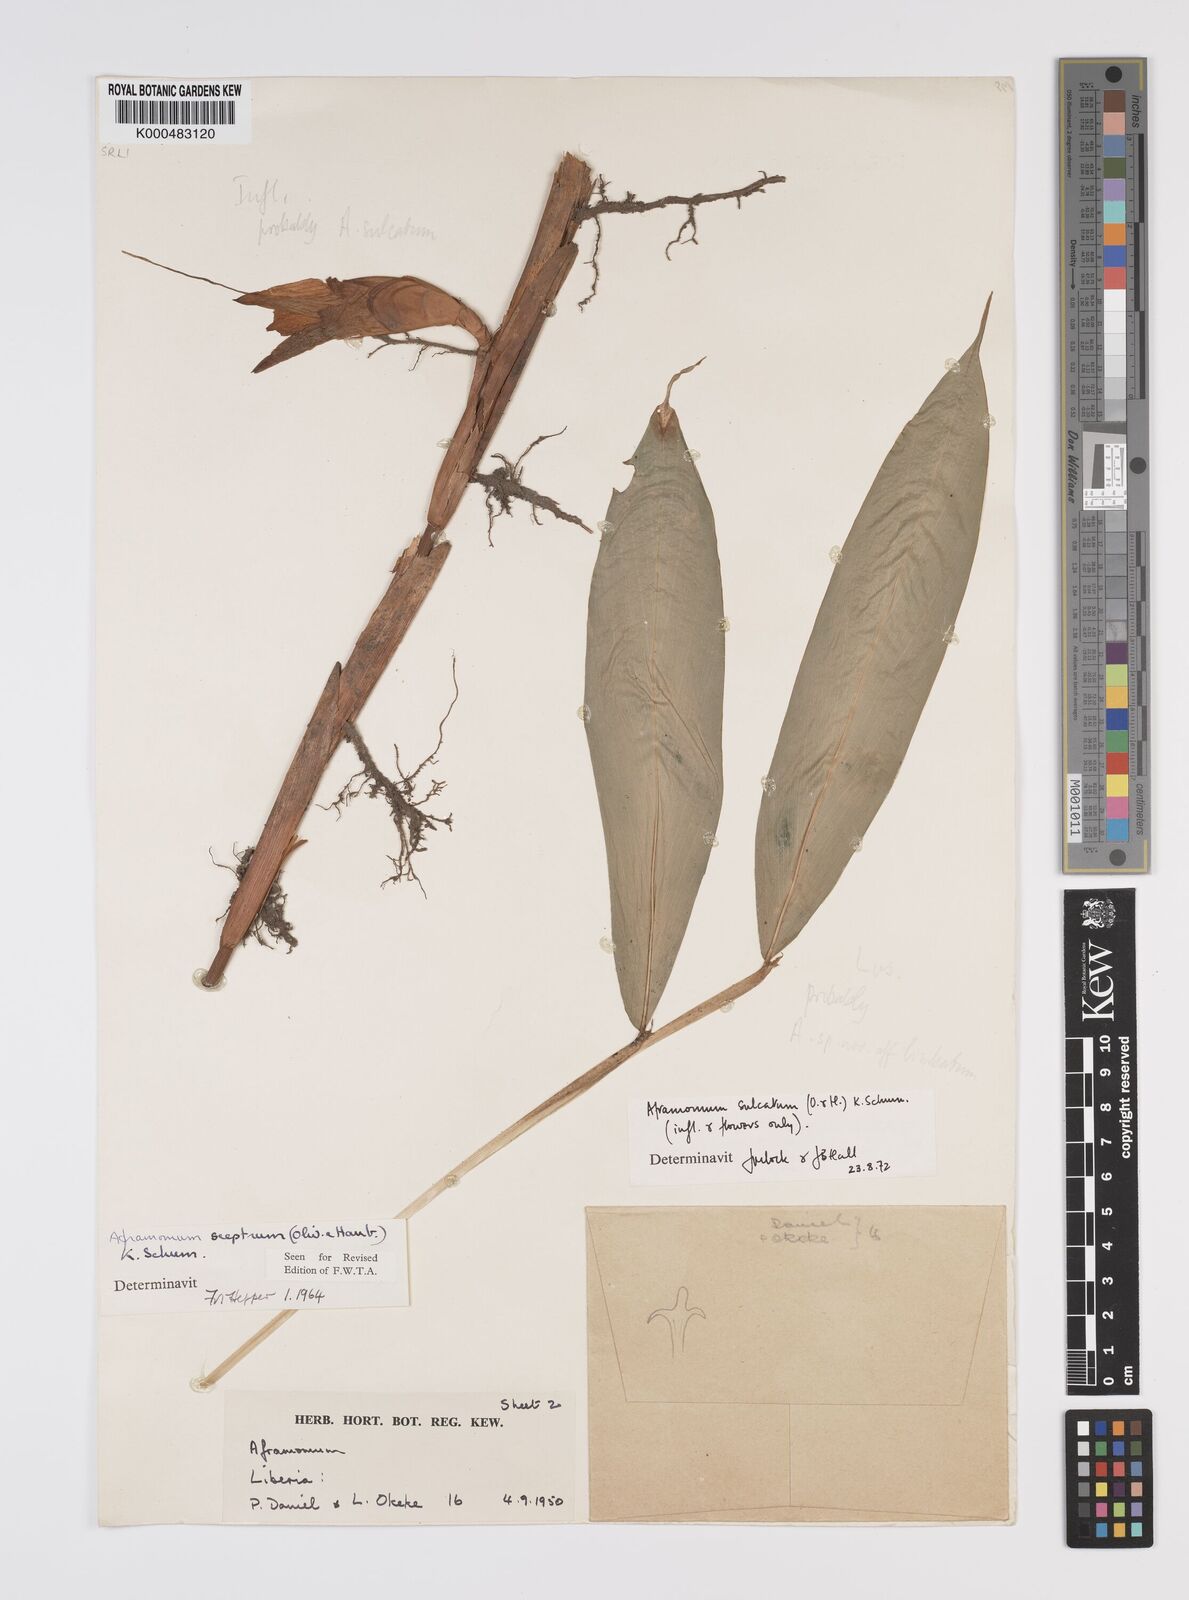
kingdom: Plantae
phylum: Tracheophyta
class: Liliopsida
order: Zingiberales
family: Zingiberaceae
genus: Aframomum
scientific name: Aframomum sulcatum
